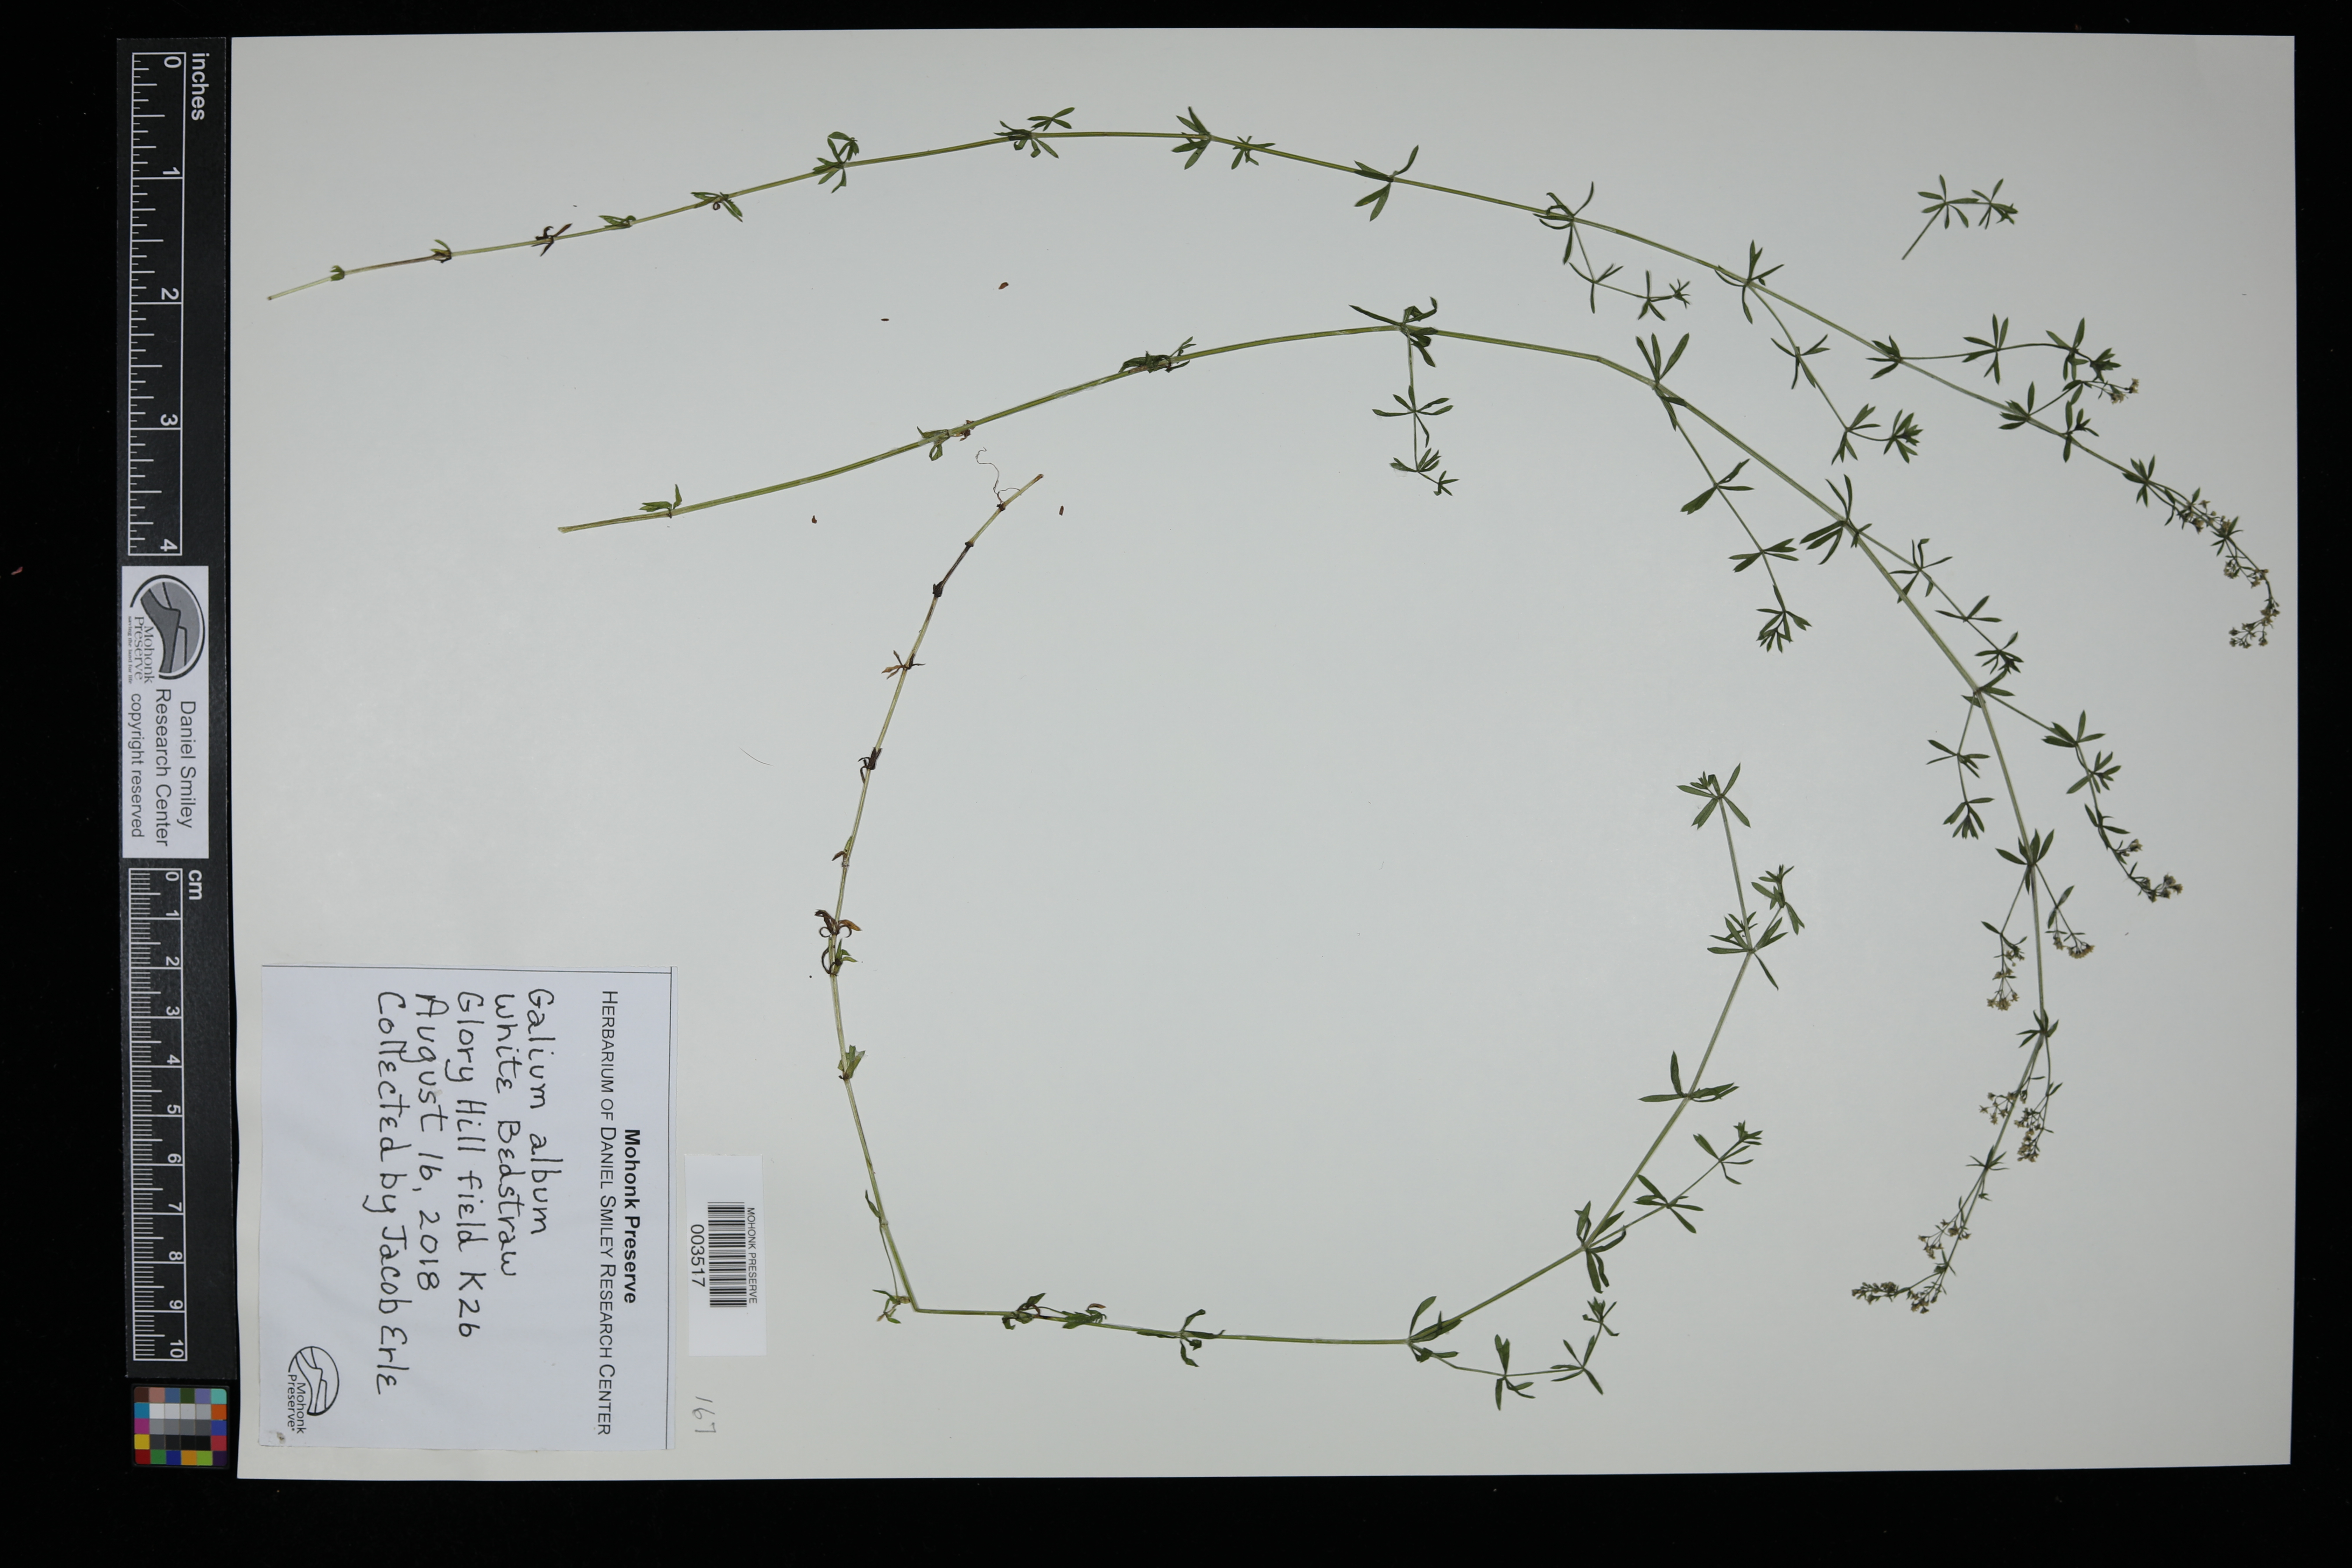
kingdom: Plantae
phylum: Tracheophyta
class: Magnoliopsida
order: Gentianales
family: Rubiaceae
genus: Galium
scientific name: Galium album
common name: White bedstraw
